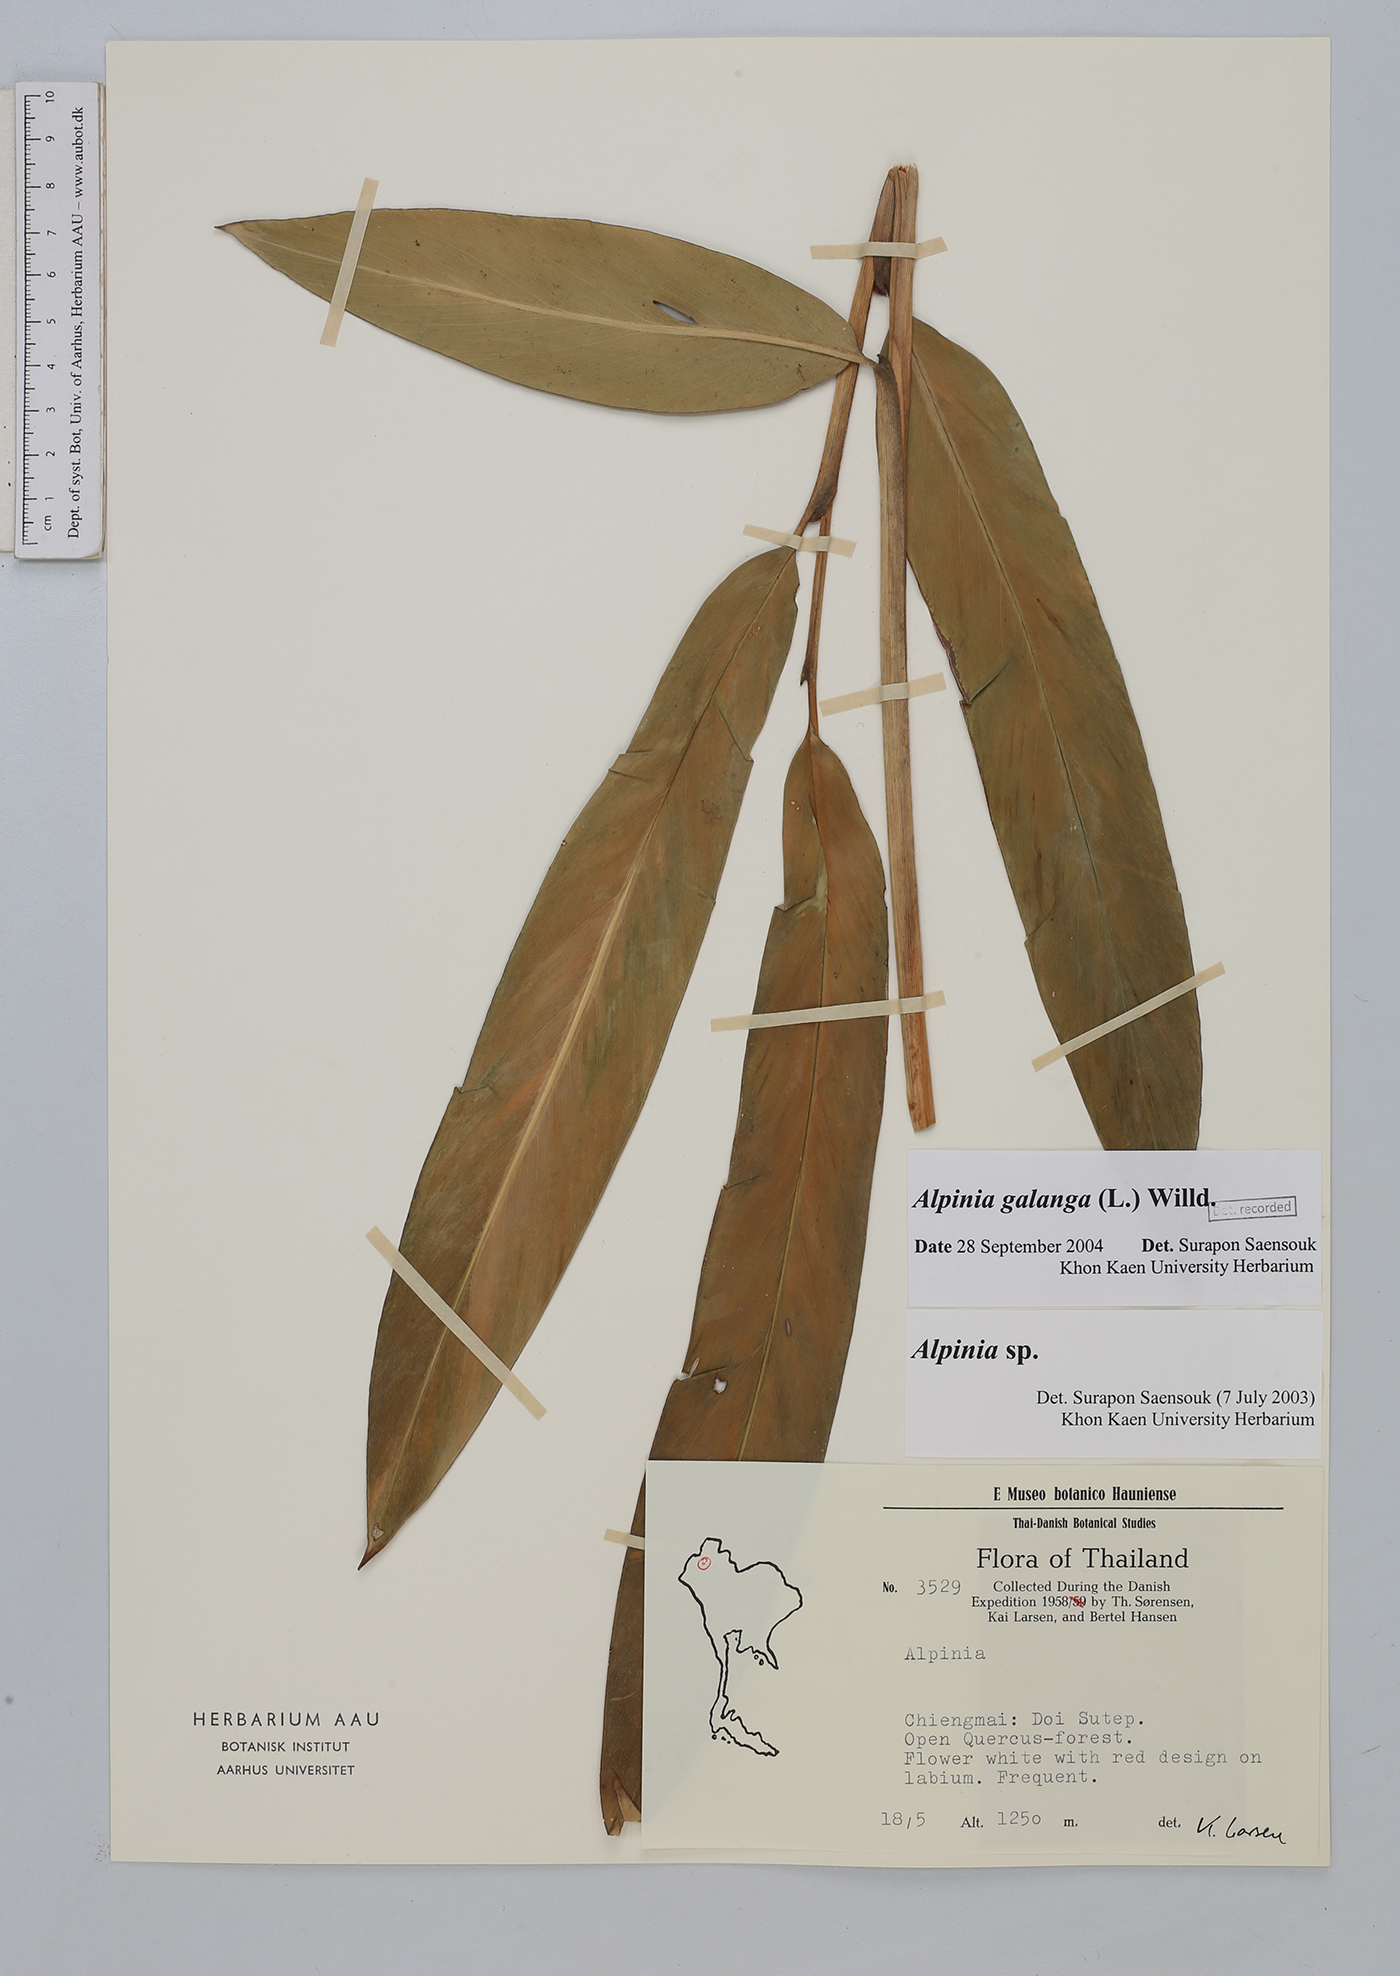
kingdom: Plantae
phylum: Tracheophyta
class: Liliopsida
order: Zingiberales
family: Zingiberaceae
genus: Alpinia
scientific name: Alpinia galanga
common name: Siamese-ginger
